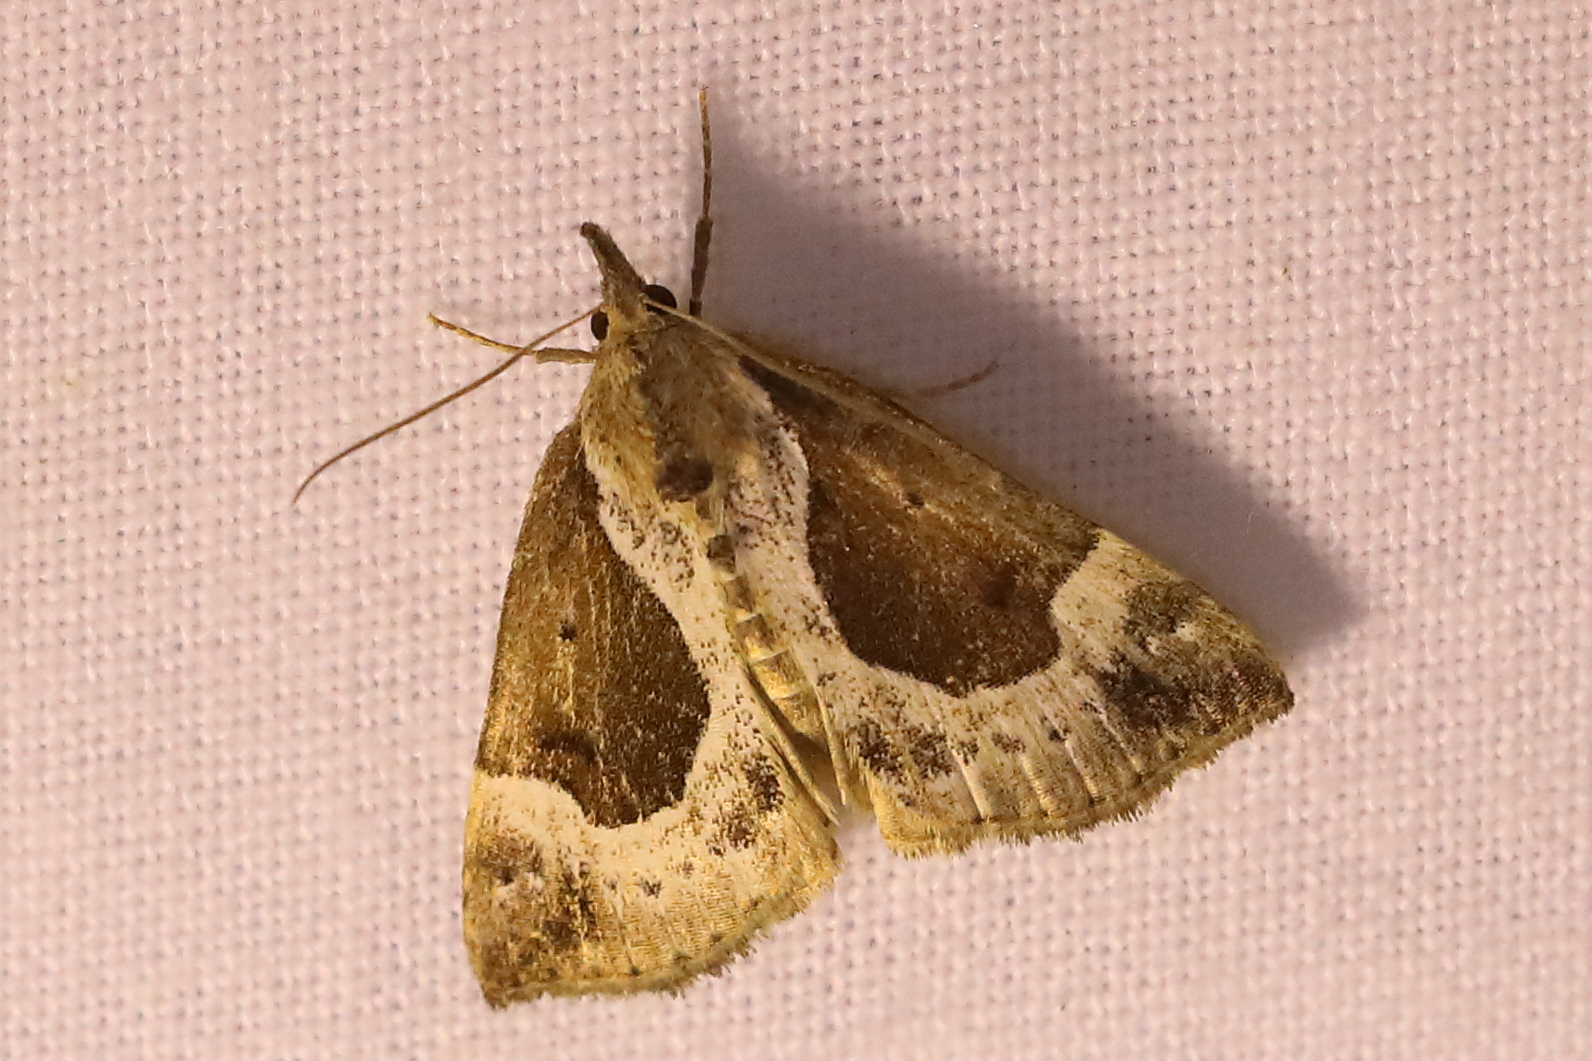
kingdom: Animalia
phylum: Arthropoda
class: Insecta
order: Lepidoptera
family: Erebidae
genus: Hypena
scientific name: Hypena crassalis
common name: Beautiful snout
